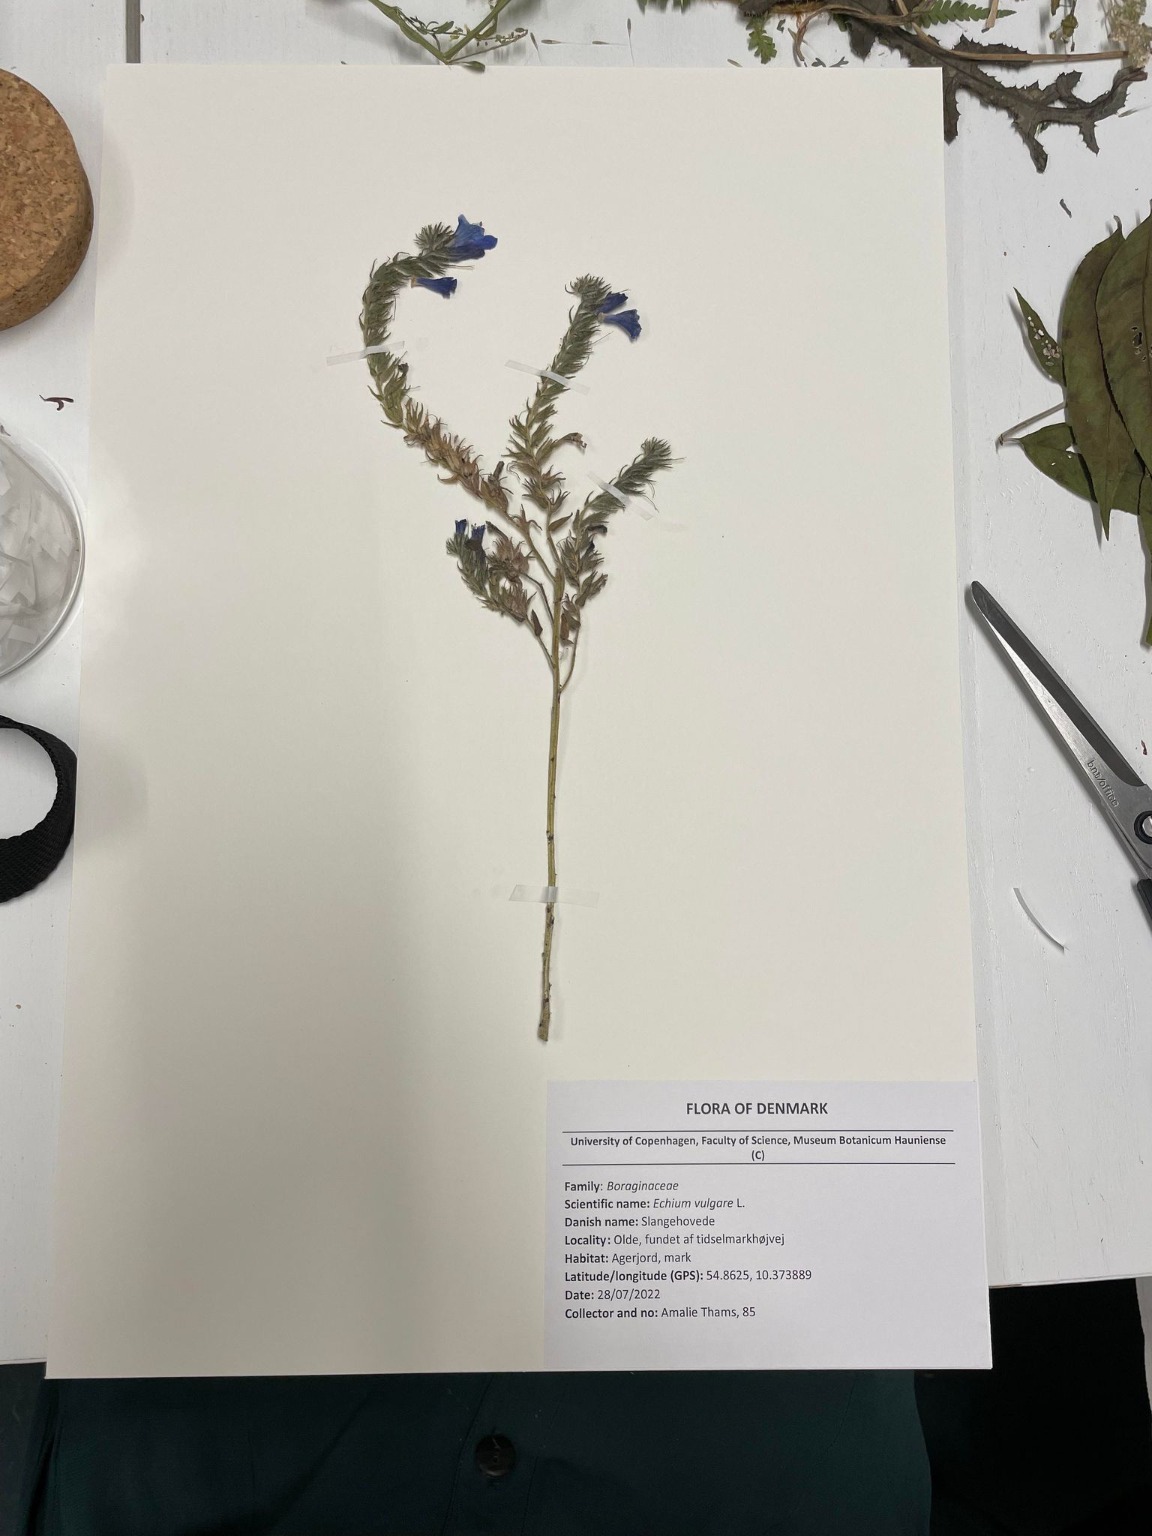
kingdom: Plantae
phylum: Tracheophyta
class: Magnoliopsida
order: Boraginales
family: Boraginaceae
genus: Echium
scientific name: Echium vulgare
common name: Slangehoved
